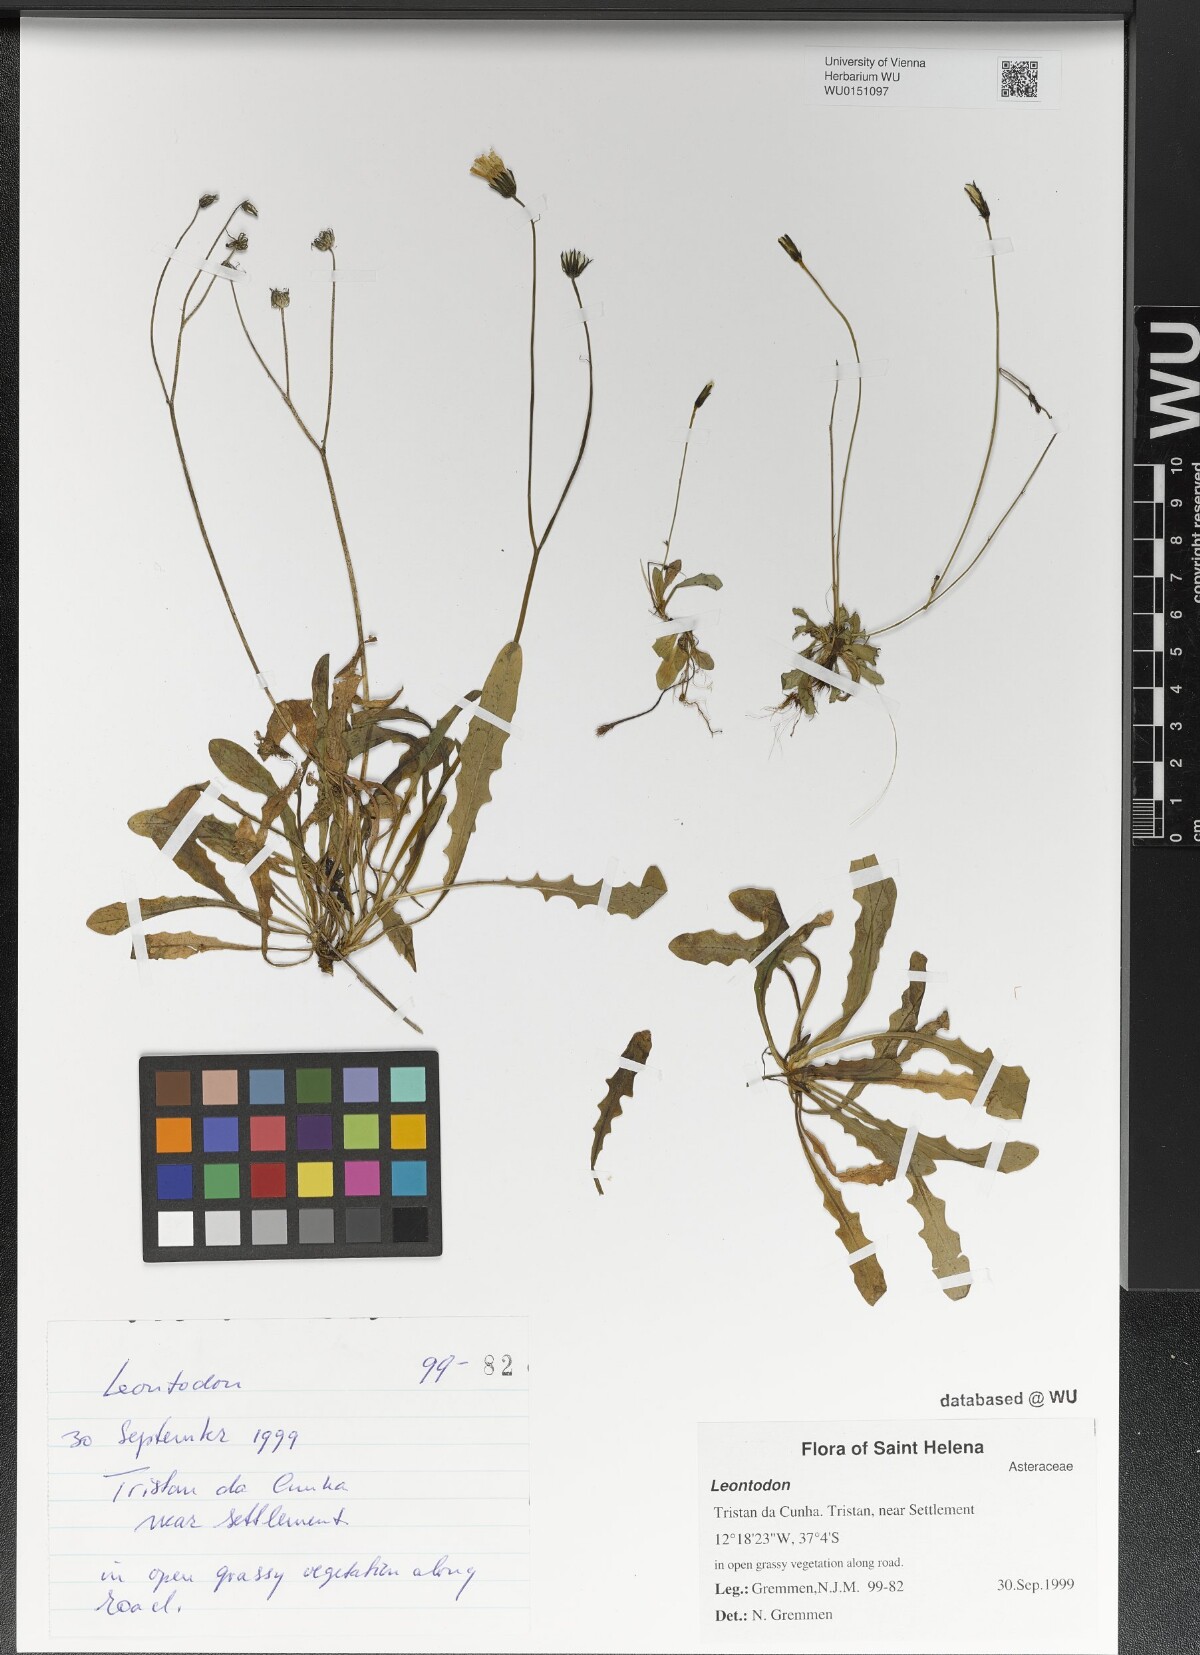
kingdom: Plantae
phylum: Tracheophyta
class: Magnoliopsida
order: Asterales
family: Asteraceae
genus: Leontodon
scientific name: Leontodon
